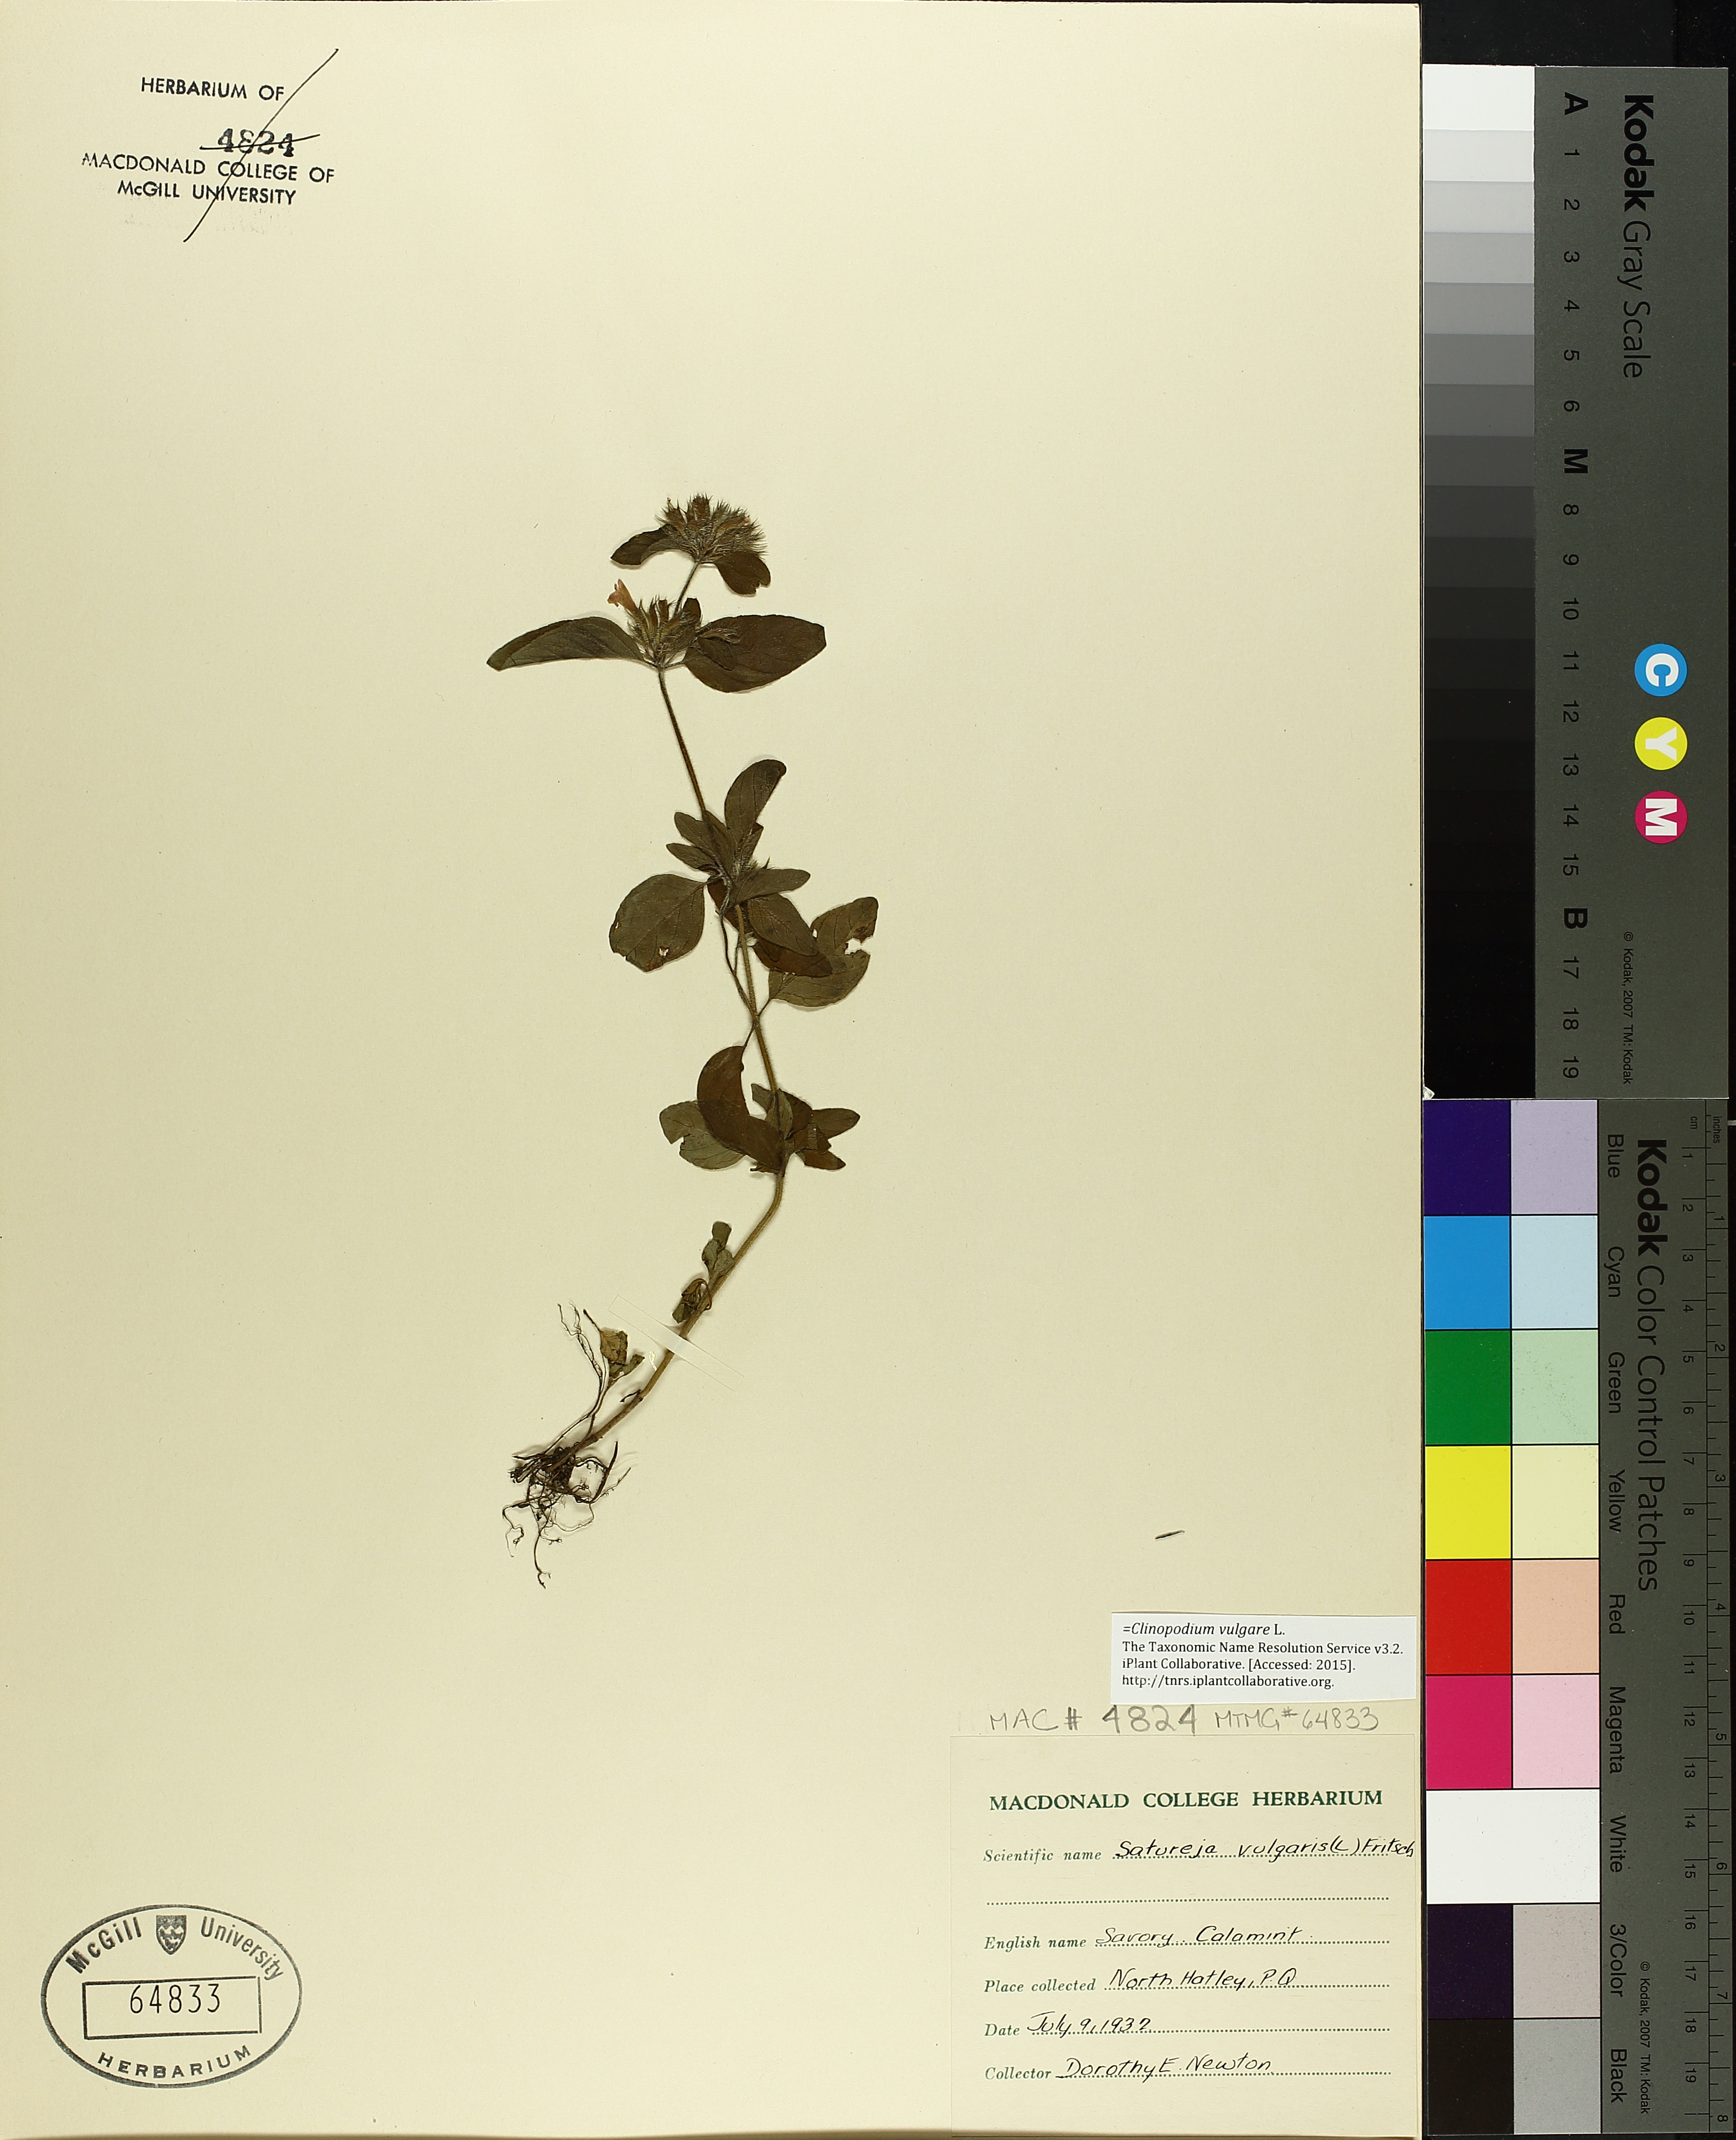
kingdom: Plantae
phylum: Tracheophyta
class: Magnoliopsida
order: Lamiales
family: Lamiaceae
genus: Clinopodium
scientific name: Clinopodium vulgare
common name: Wild basil
